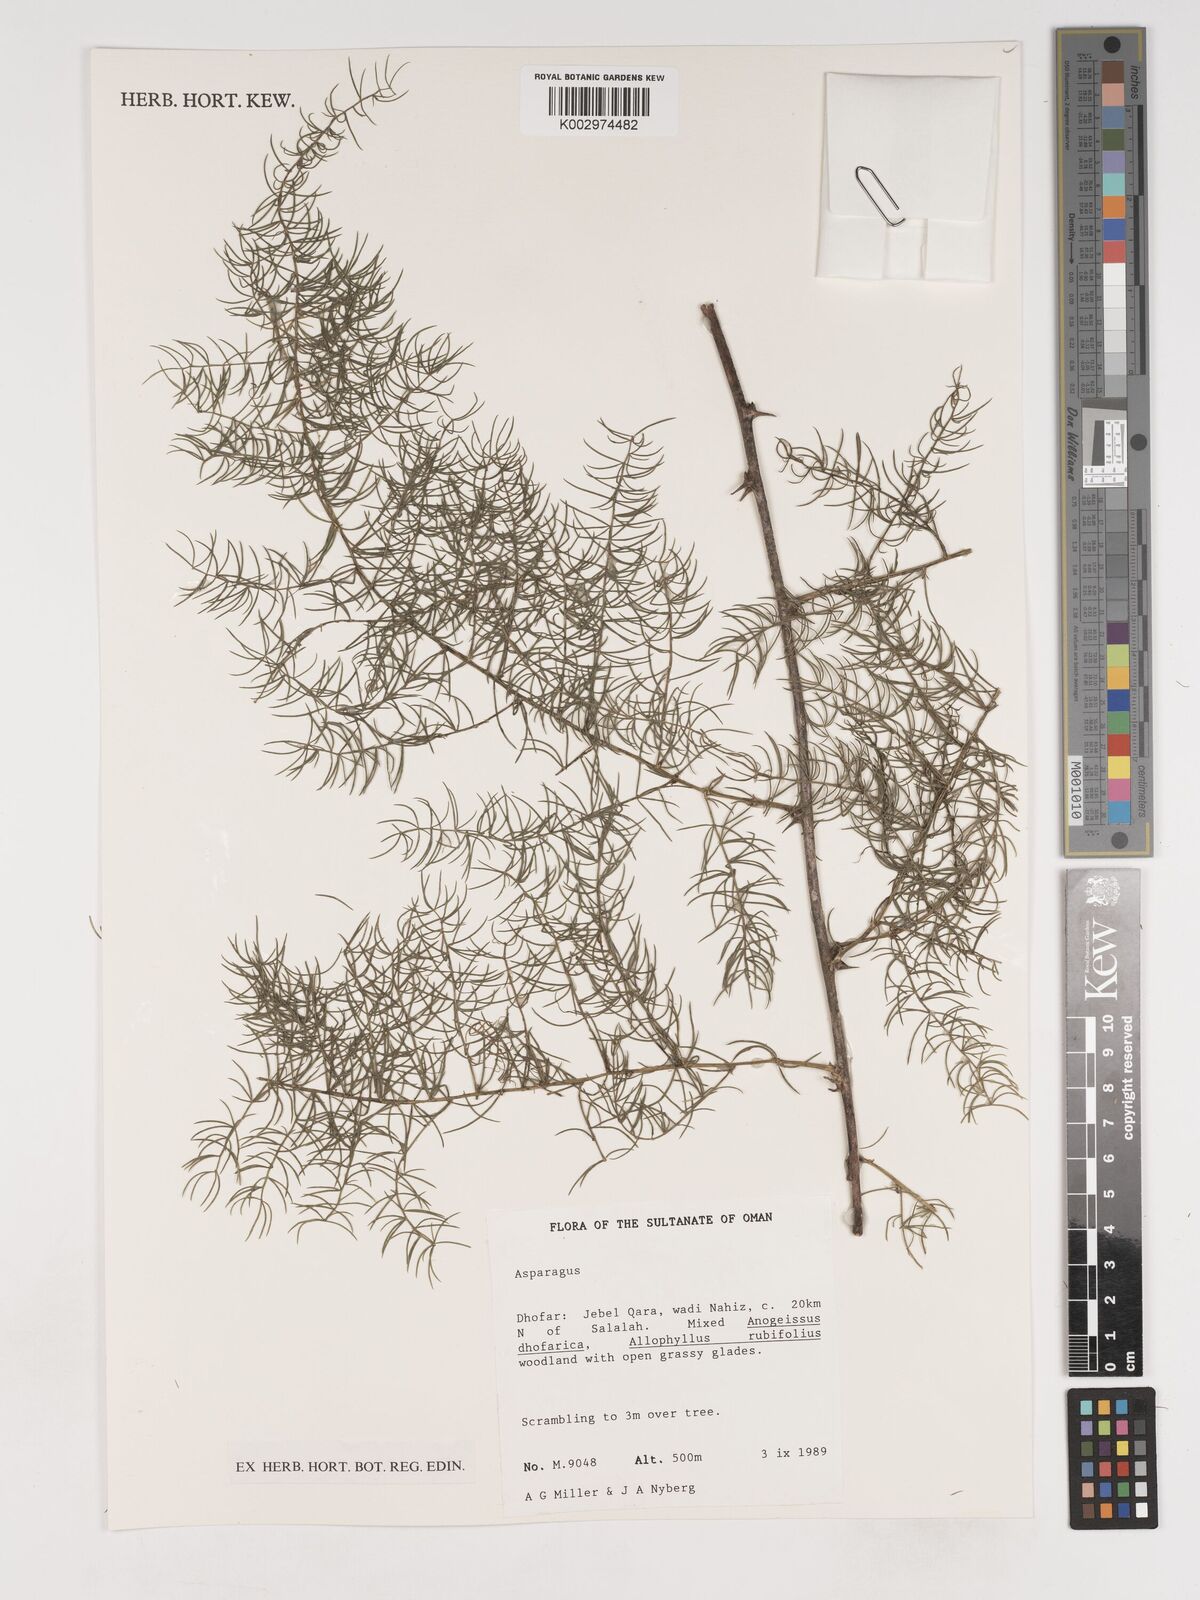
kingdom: Plantae
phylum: Tracheophyta
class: Liliopsida
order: Asparagales
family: Asparagaceae
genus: Asparagus
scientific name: Asparagus
